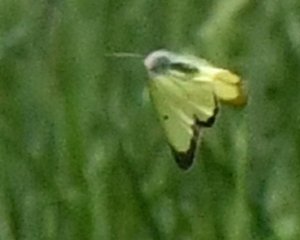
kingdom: Animalia
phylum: Arthropoda
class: Insecta
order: Lepidoptera
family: Pieridae
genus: Colias
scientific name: Colias philodice
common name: Clouded Sulphur
